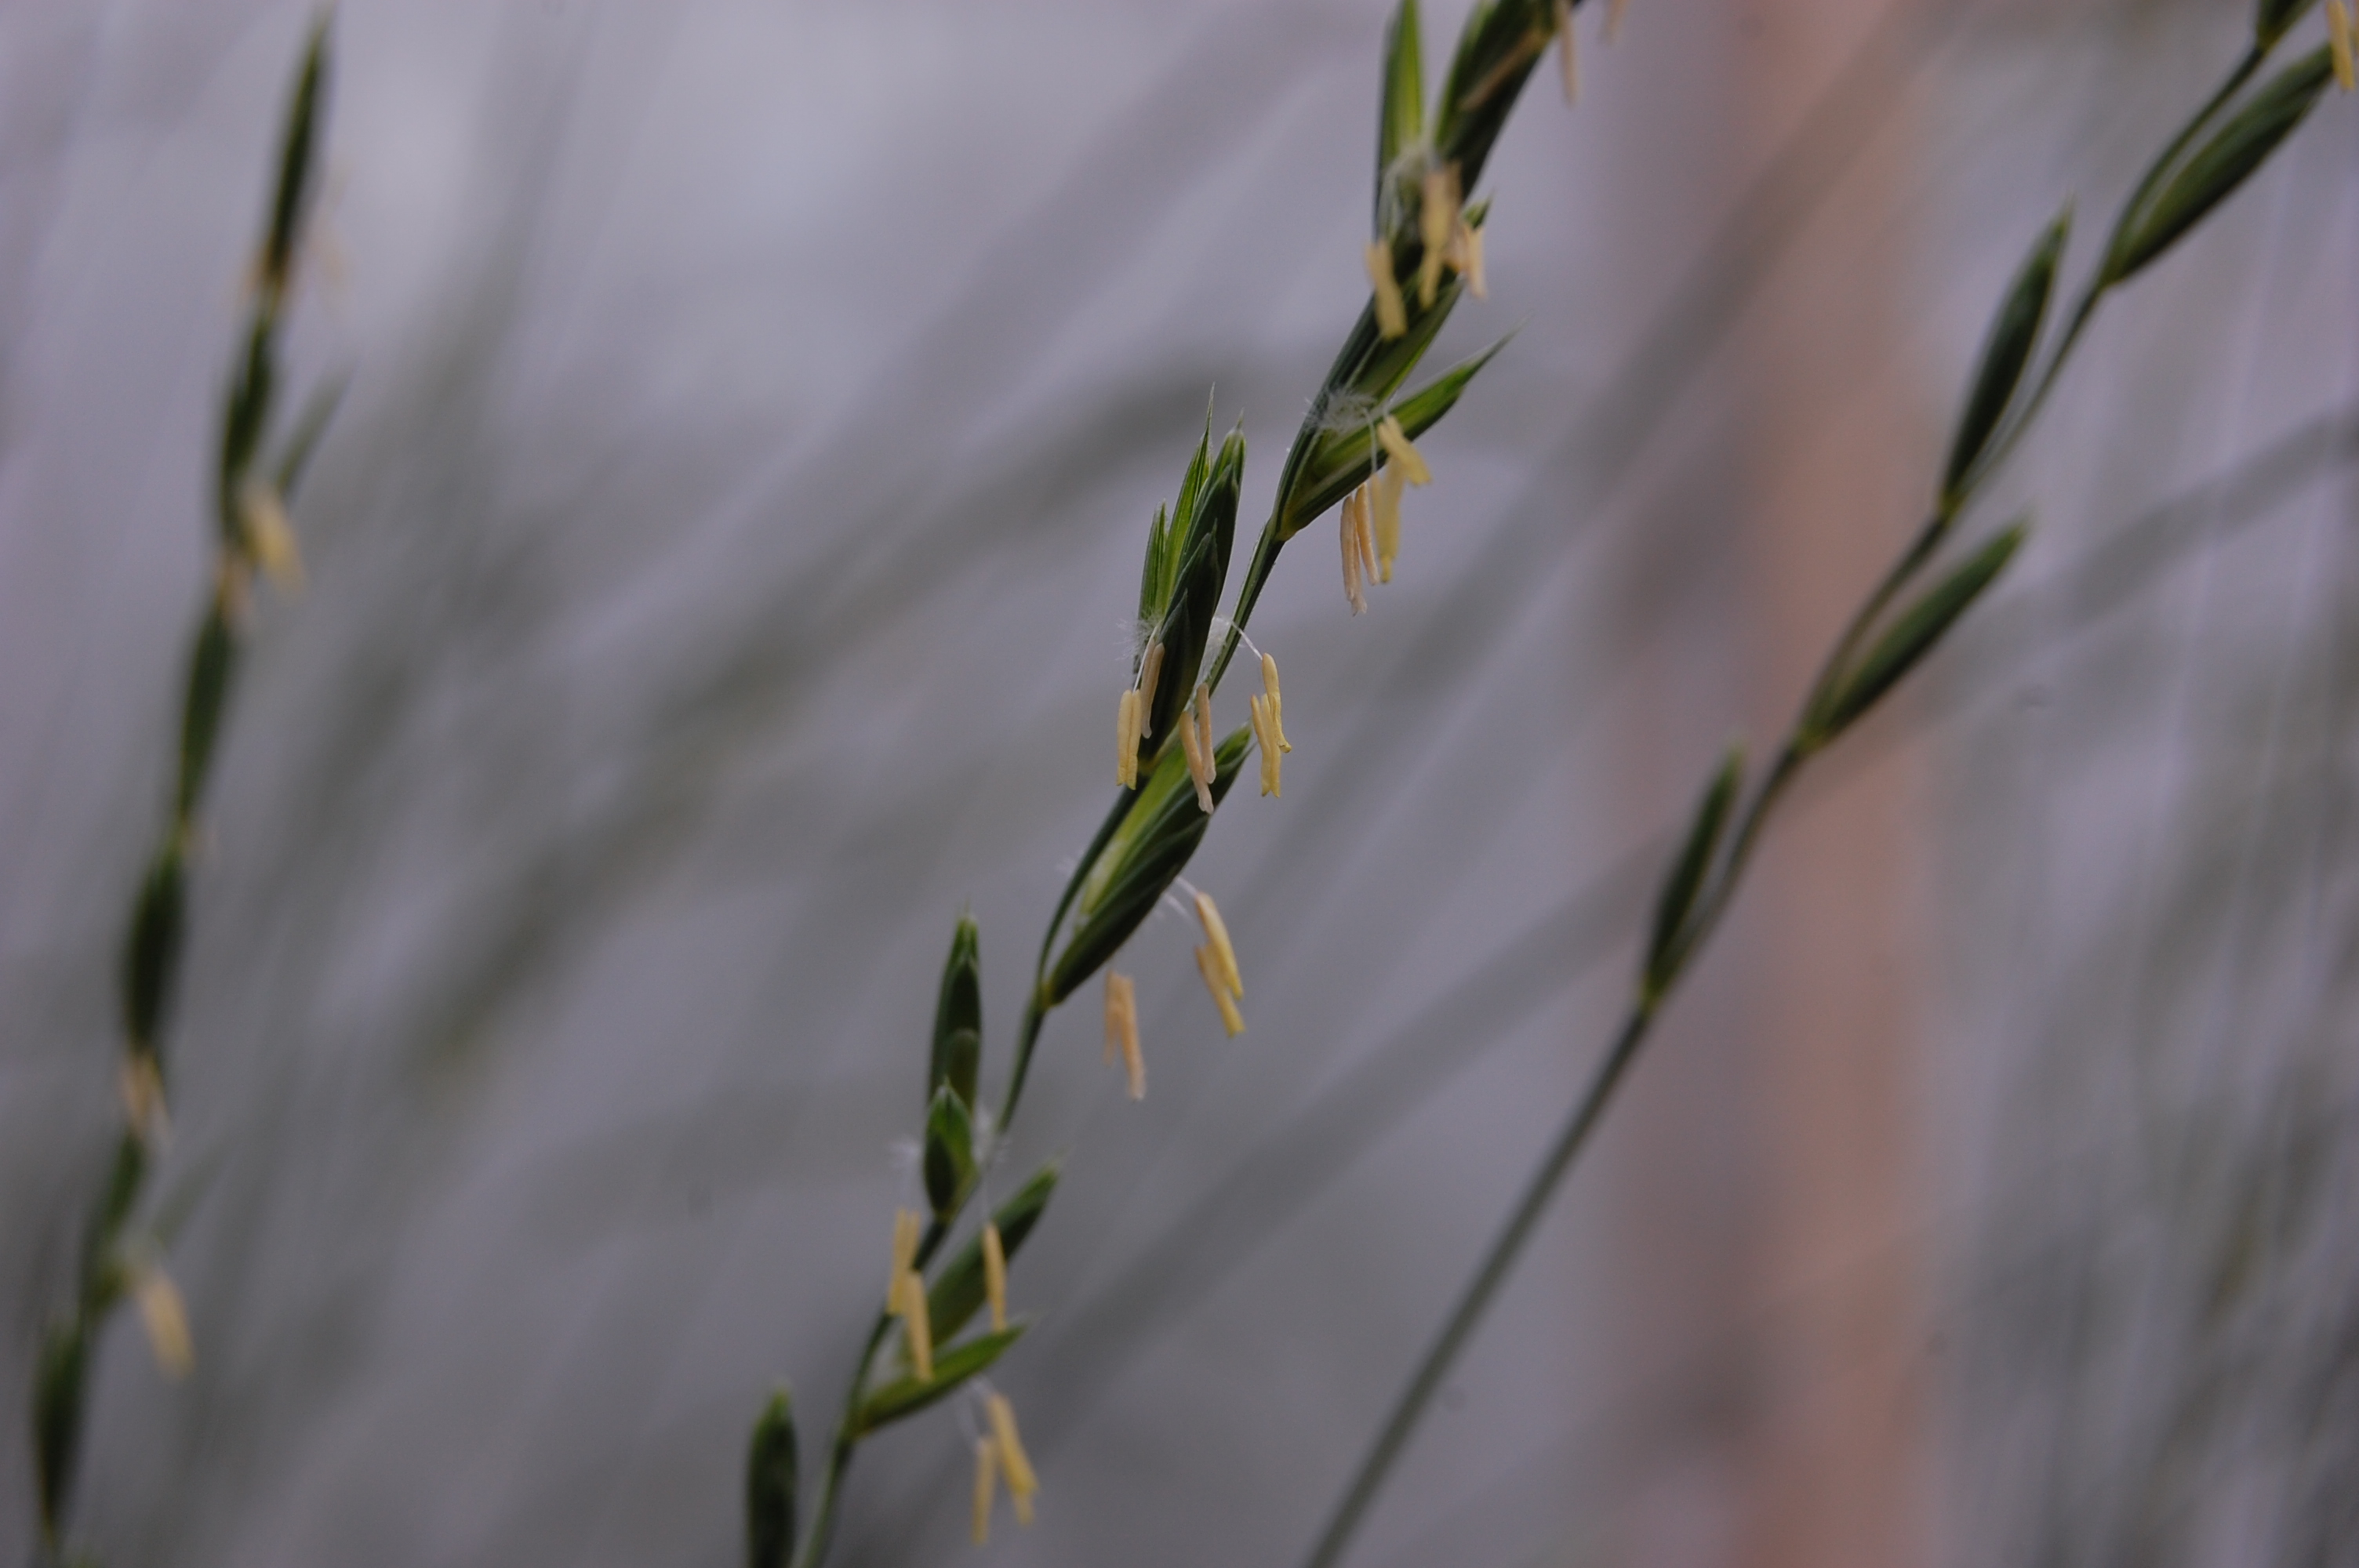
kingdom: Plantae
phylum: Tracheophyta
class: Liliopsida
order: Poales
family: Poaceae
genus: Elymus
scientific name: Elymus transhyrcanus
